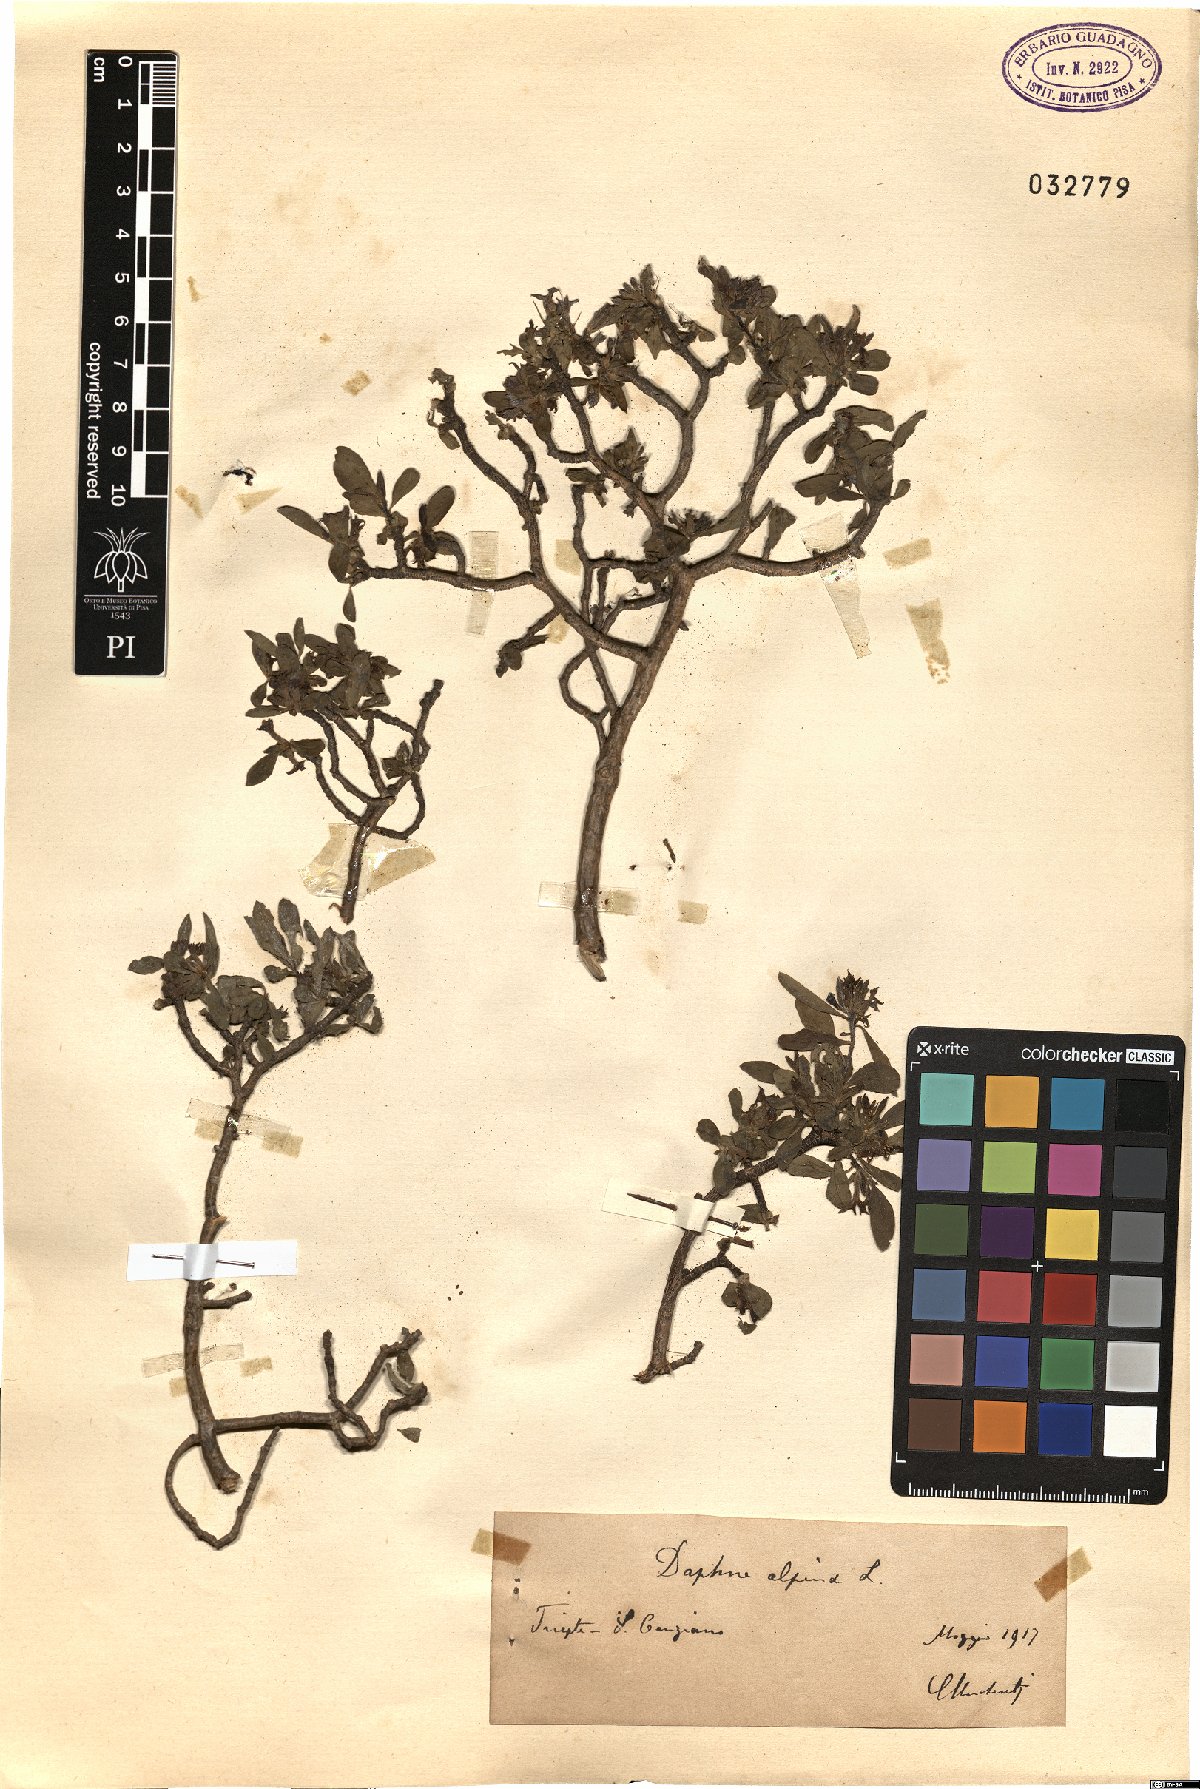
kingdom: Plantae
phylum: Tracheophyta
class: Magnoliopsida
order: Malvales
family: Thymelaeaceae
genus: Daphne
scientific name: Daphne alpina
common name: Alpine daphne
